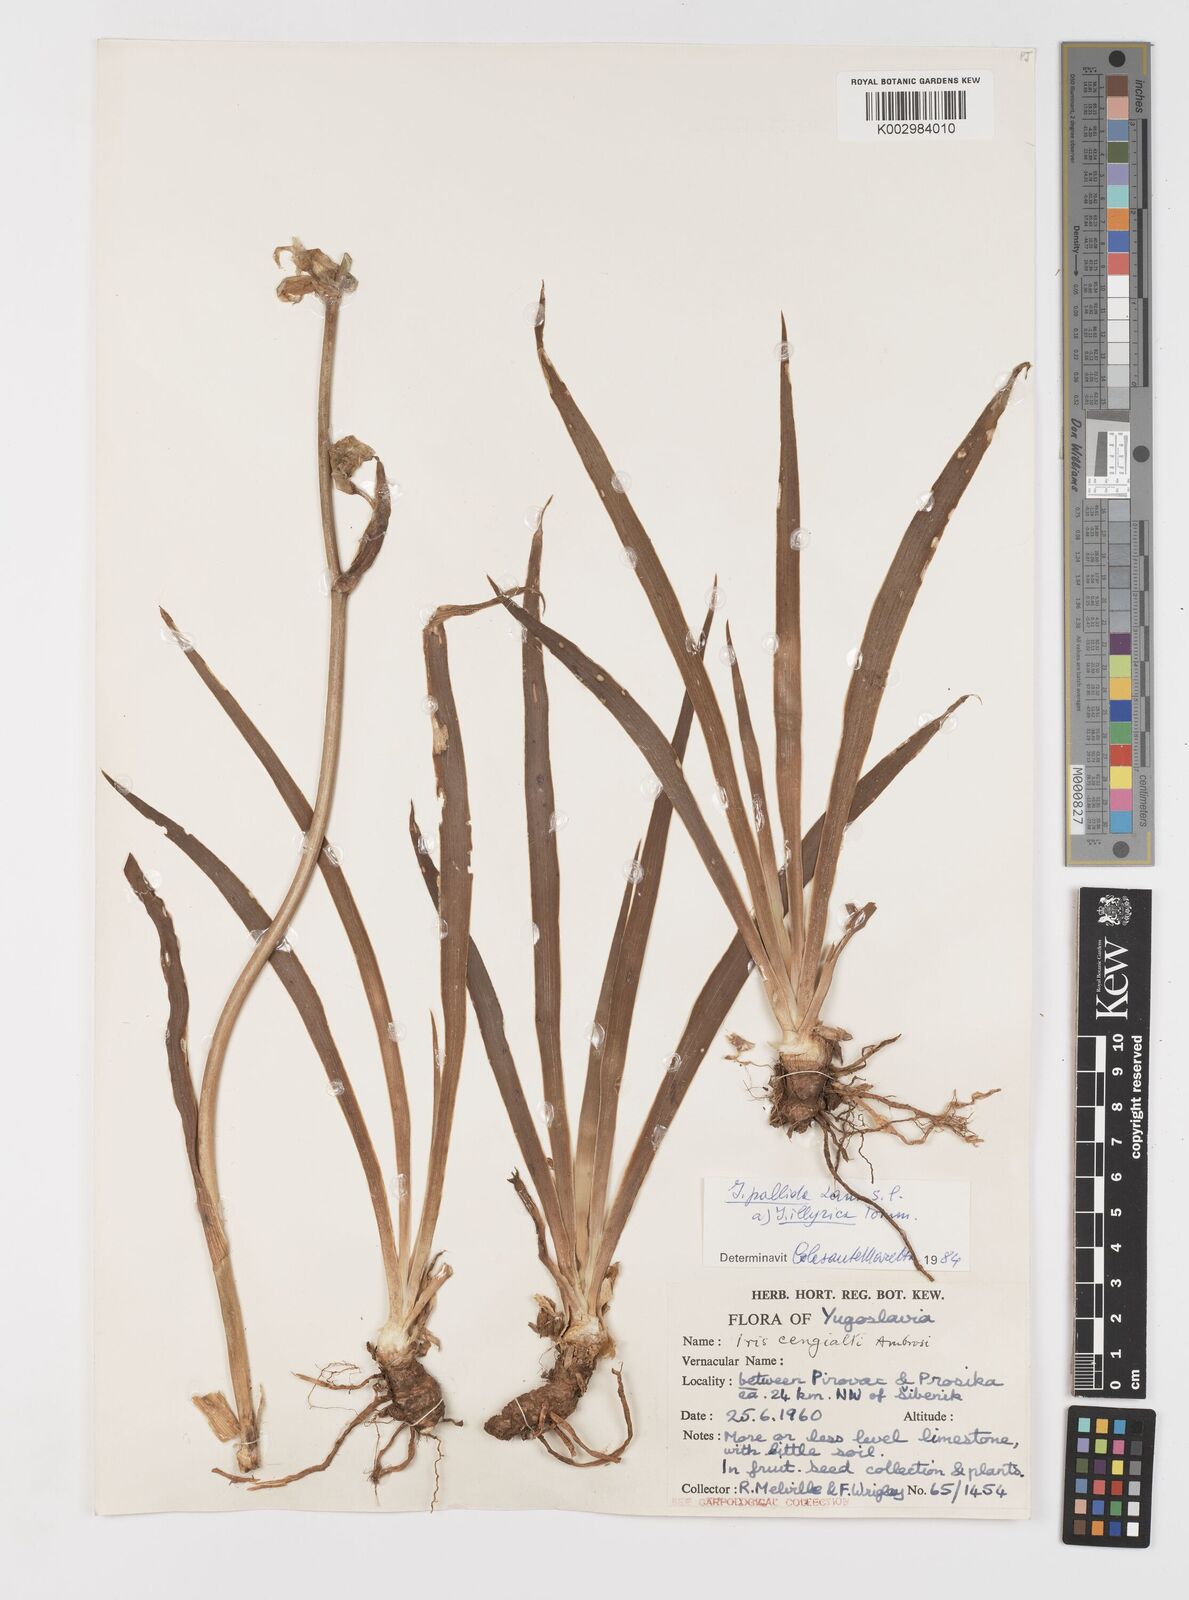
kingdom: Plantae
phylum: Tracheophyta
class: Liliopsida
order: Asparagales
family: Iridaceae
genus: Iris
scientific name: Iris pallida
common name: Sweet iris
